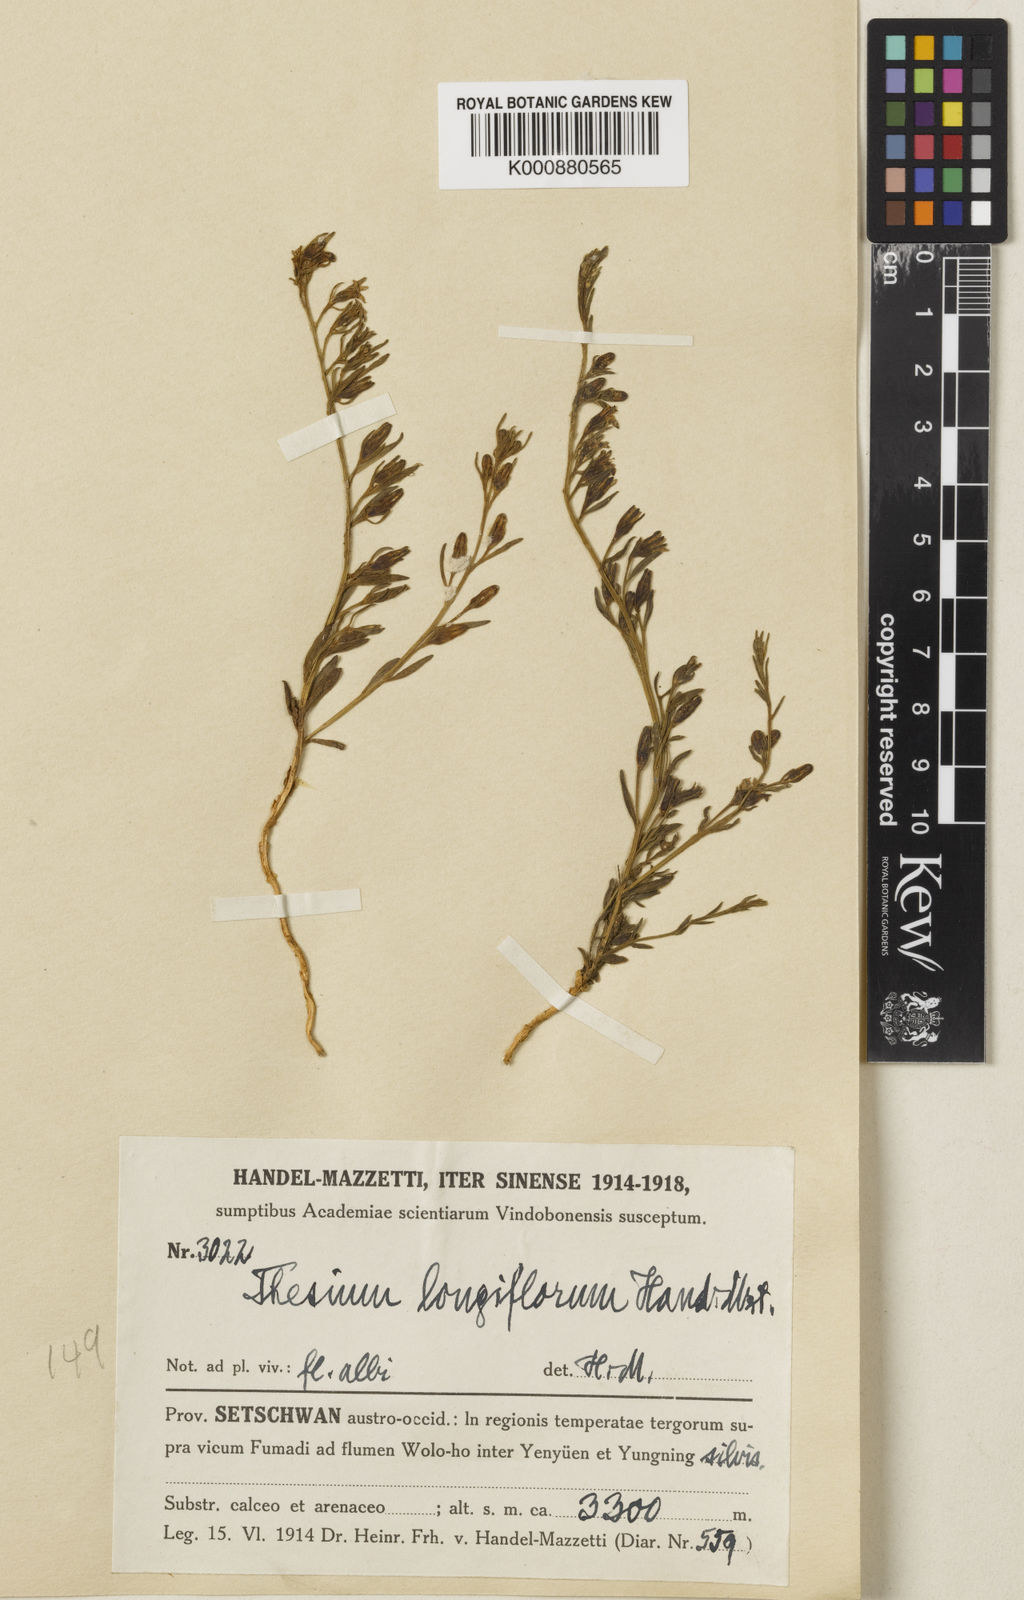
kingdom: Plantae
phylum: Tracheophyta
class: Magnoliopsida
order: Santalales
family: Thesiaceae
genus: Thesium
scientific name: Thesium longiflorum
